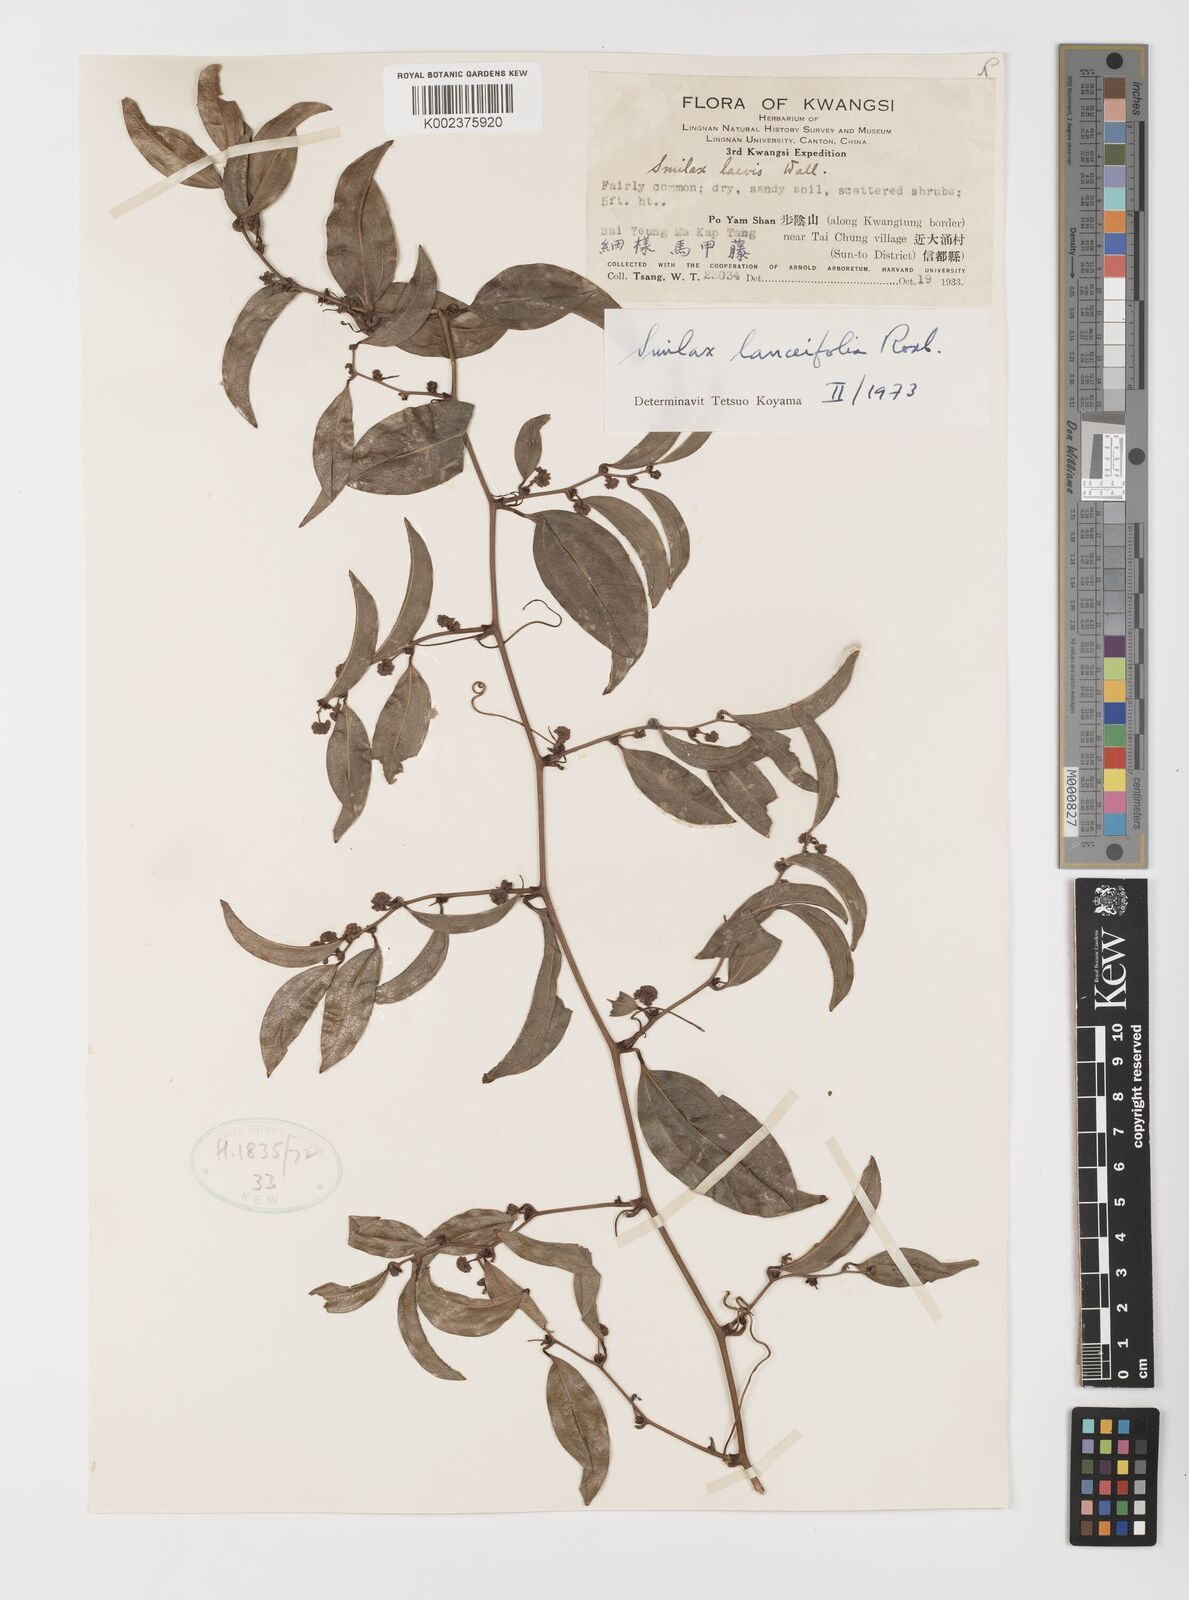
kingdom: Plantae
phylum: Tracheophyta
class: Liliopsida
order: Liliales
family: Smilacaceae
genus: Smilax
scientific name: Smilax lanceifolia
